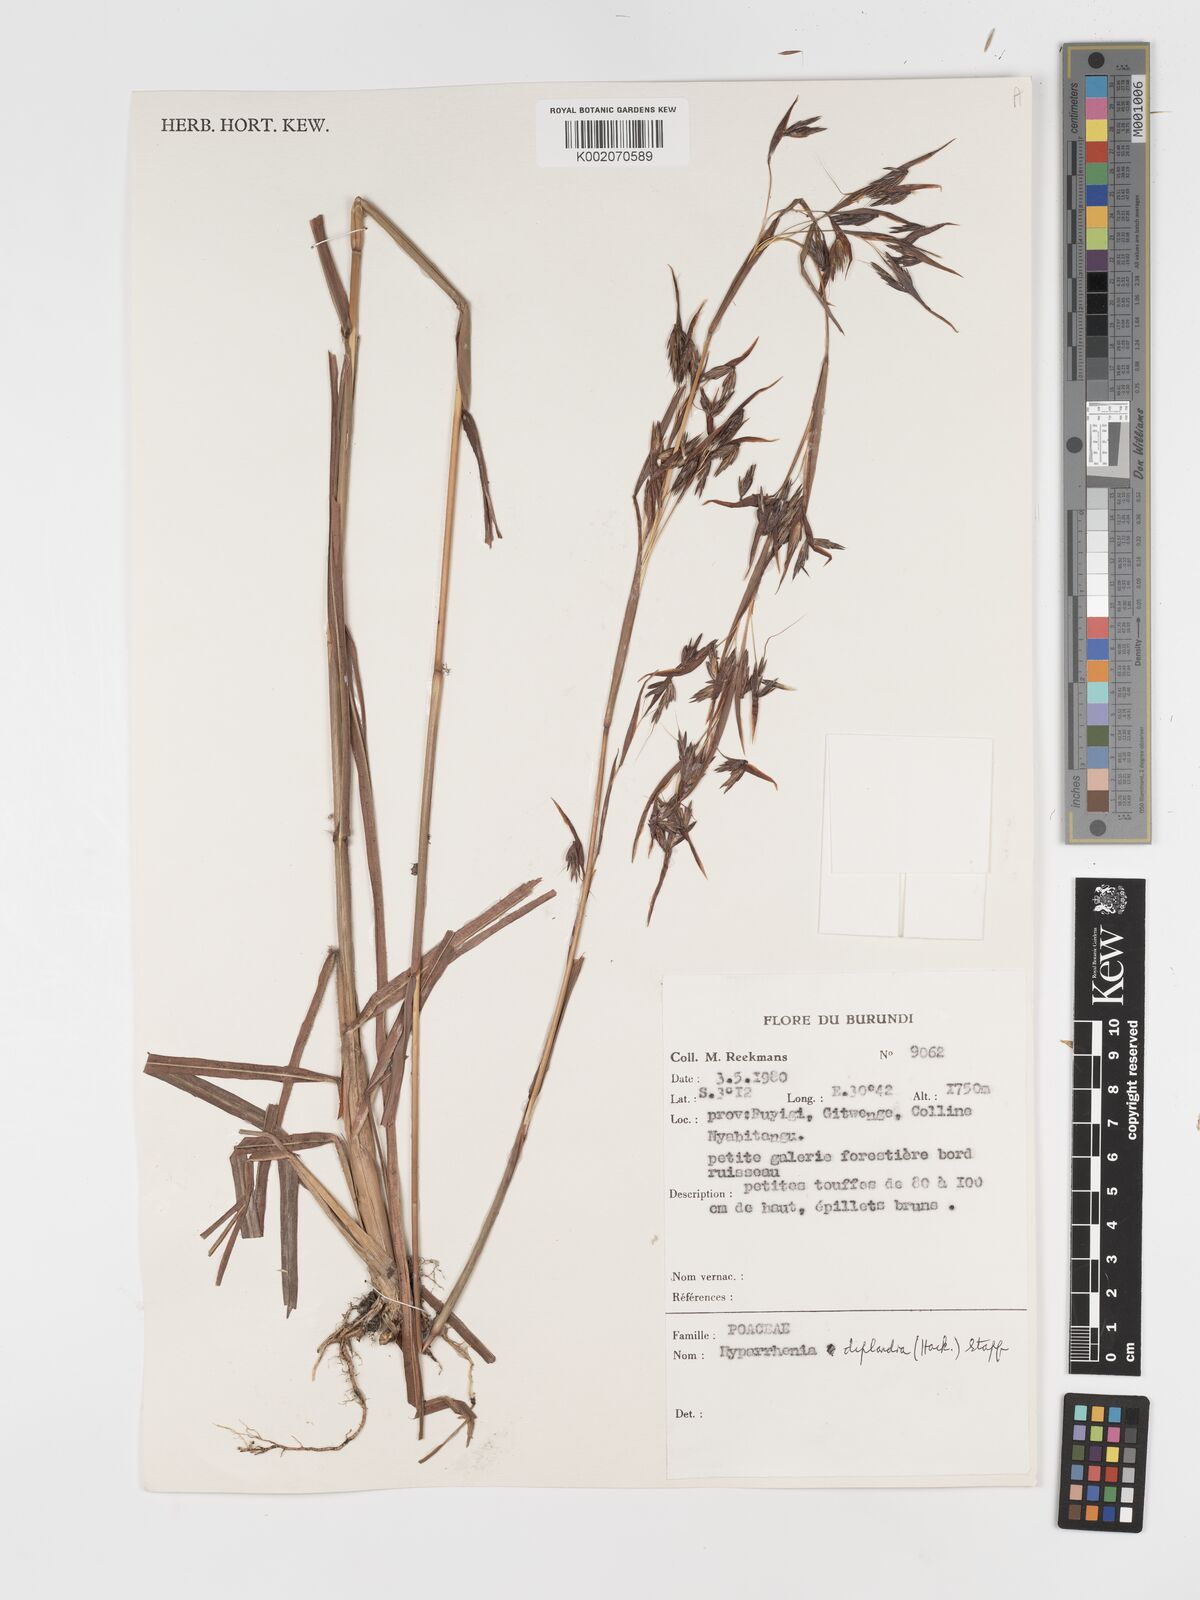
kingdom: Plantae
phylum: Tracheophyta
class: Liliopsida
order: Poales
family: Poaceae
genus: Hyparrhenia
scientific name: Hyparrhenia diplandra
